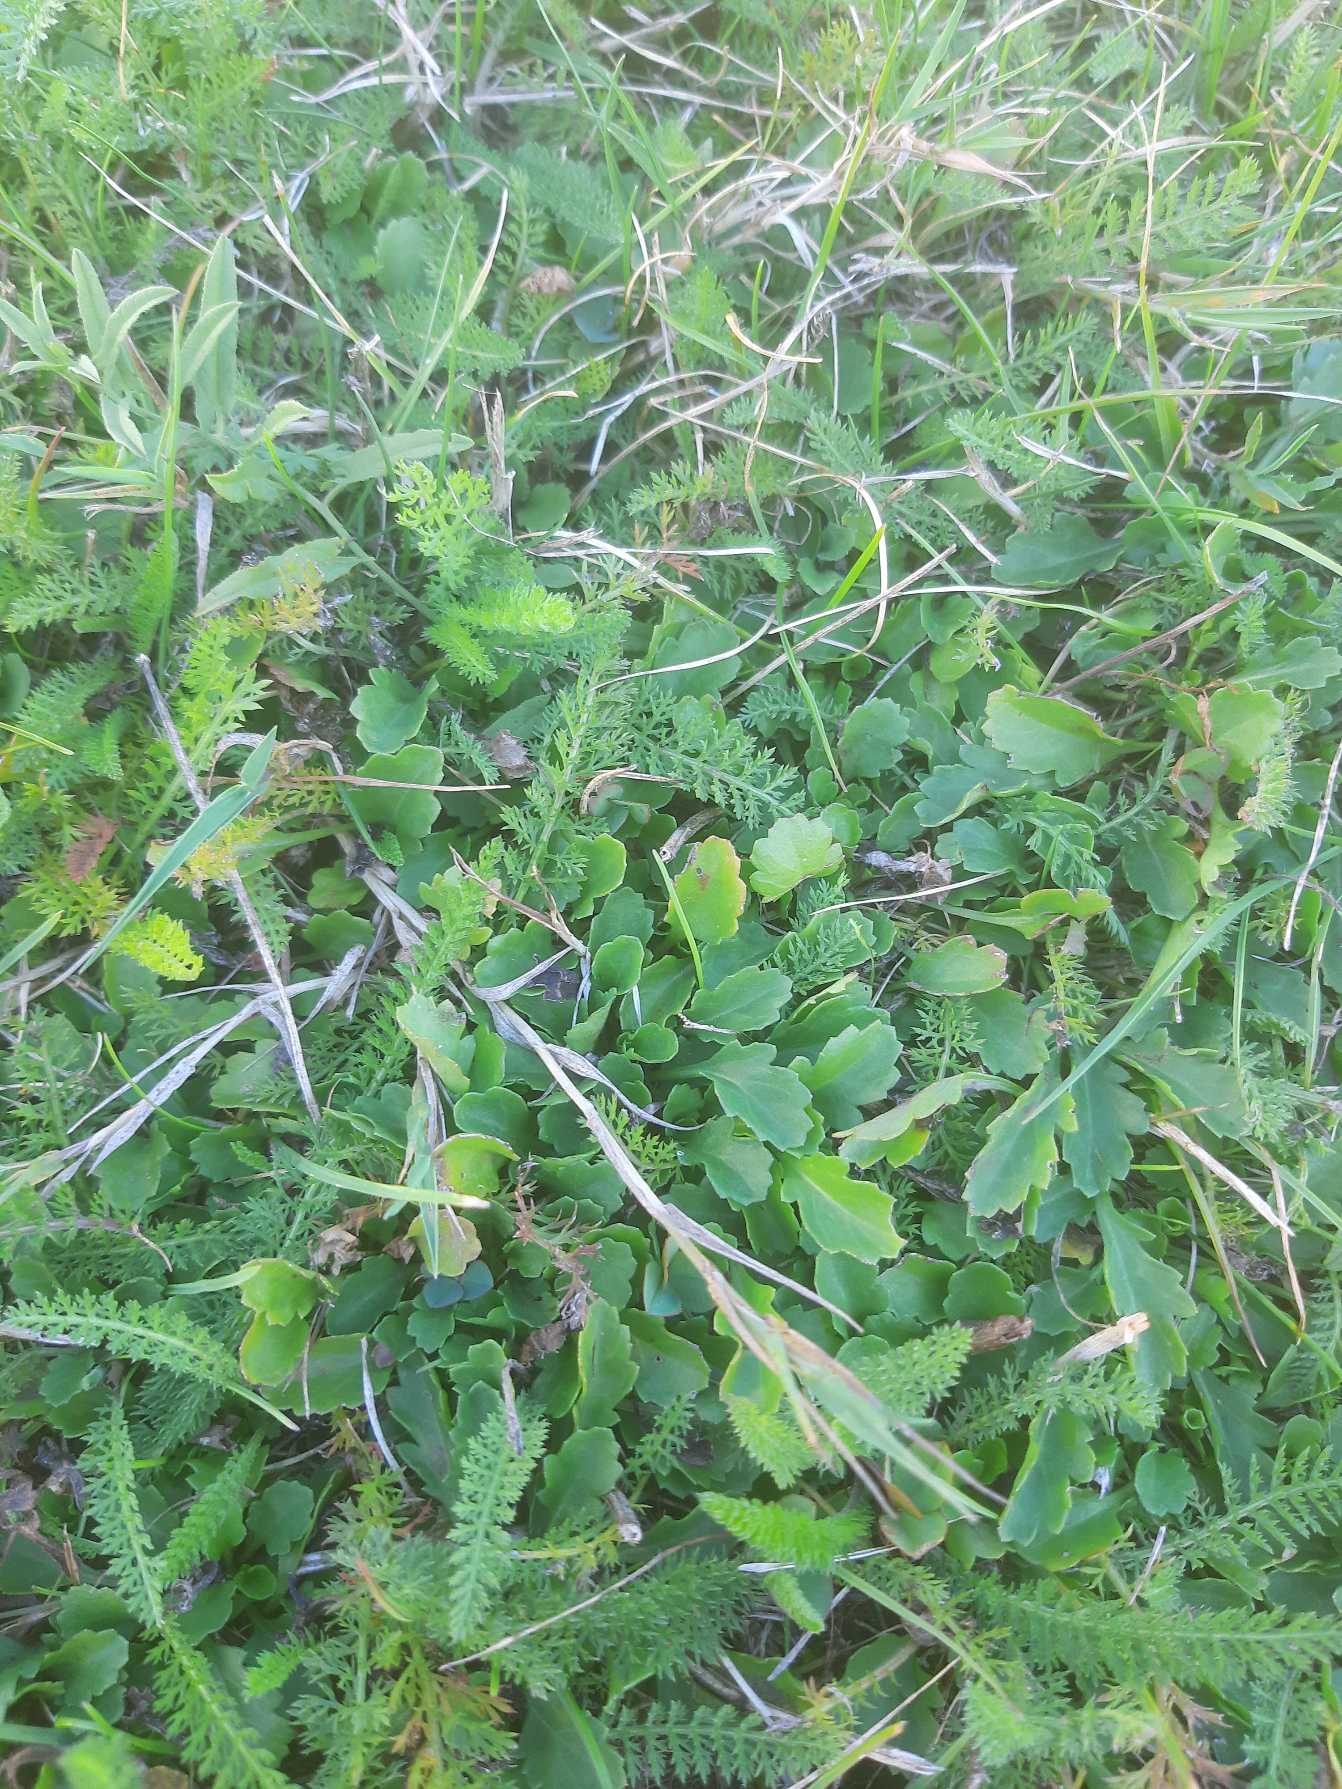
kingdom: Plantae
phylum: Tracheophyta
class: Magnoliopsida
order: Asterales
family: Asteraceae
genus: Leucanthemum
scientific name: Leucanthemum vulgare
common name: Hvid okseøje
